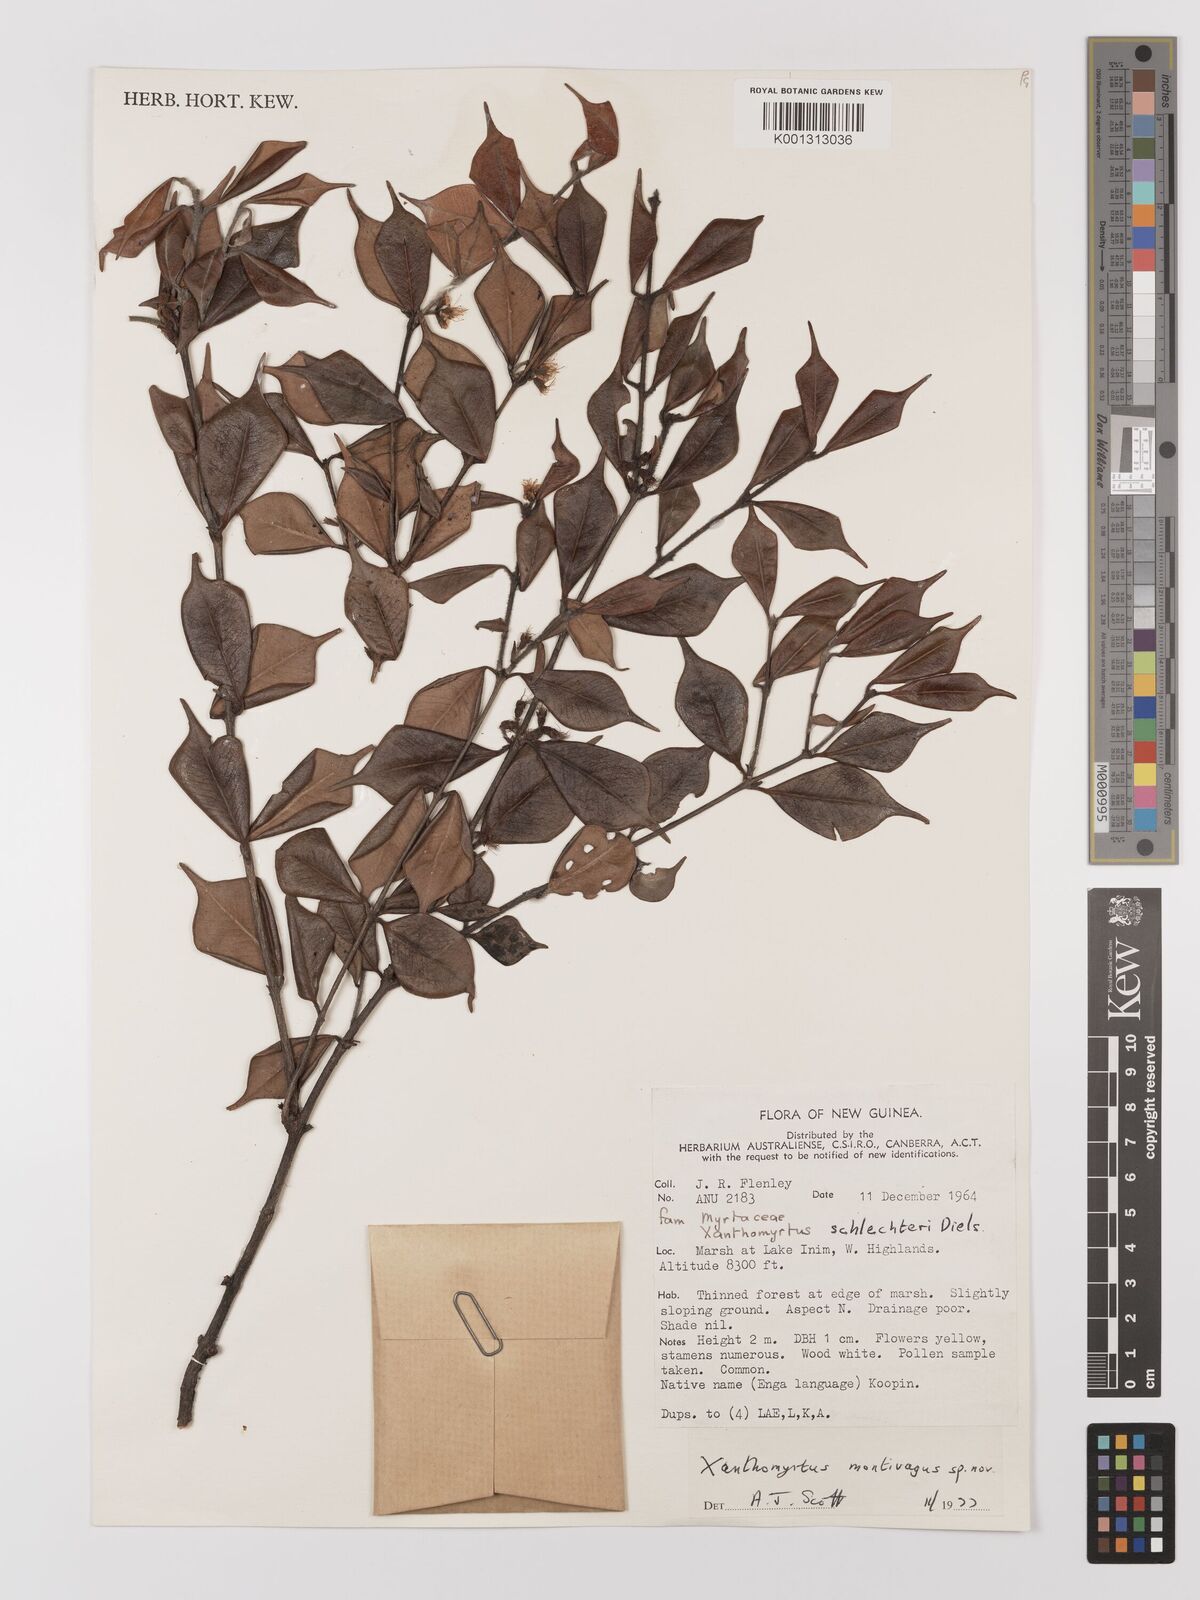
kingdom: Plantae
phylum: Tracheophyta
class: Magnoliopsida
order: Myrtales
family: Myrtaceae
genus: Xanthomyrtus
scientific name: Xanthomyrtus montivaga
